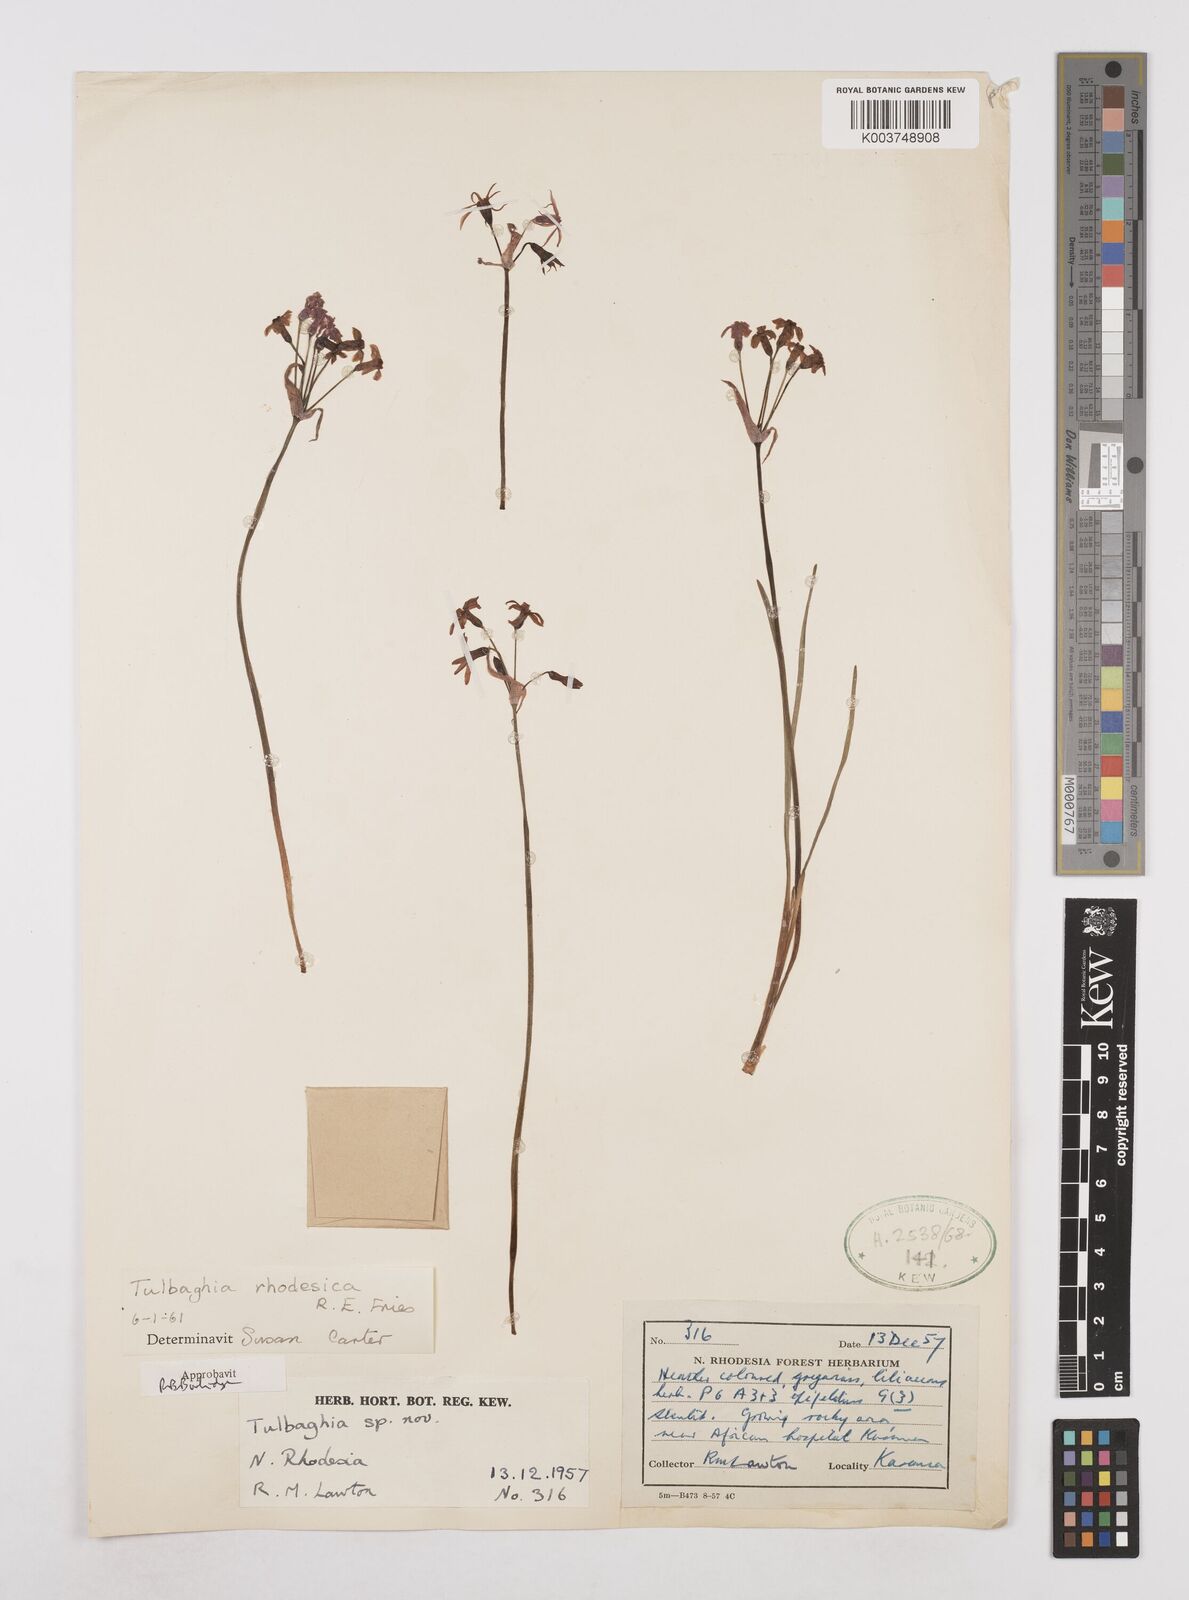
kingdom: Plantae
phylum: Tracheophyta
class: Liliopsida
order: Asparagales
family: Amaryllidaceae
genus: Tulbaghia
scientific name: Tulbaghia rhodesica
